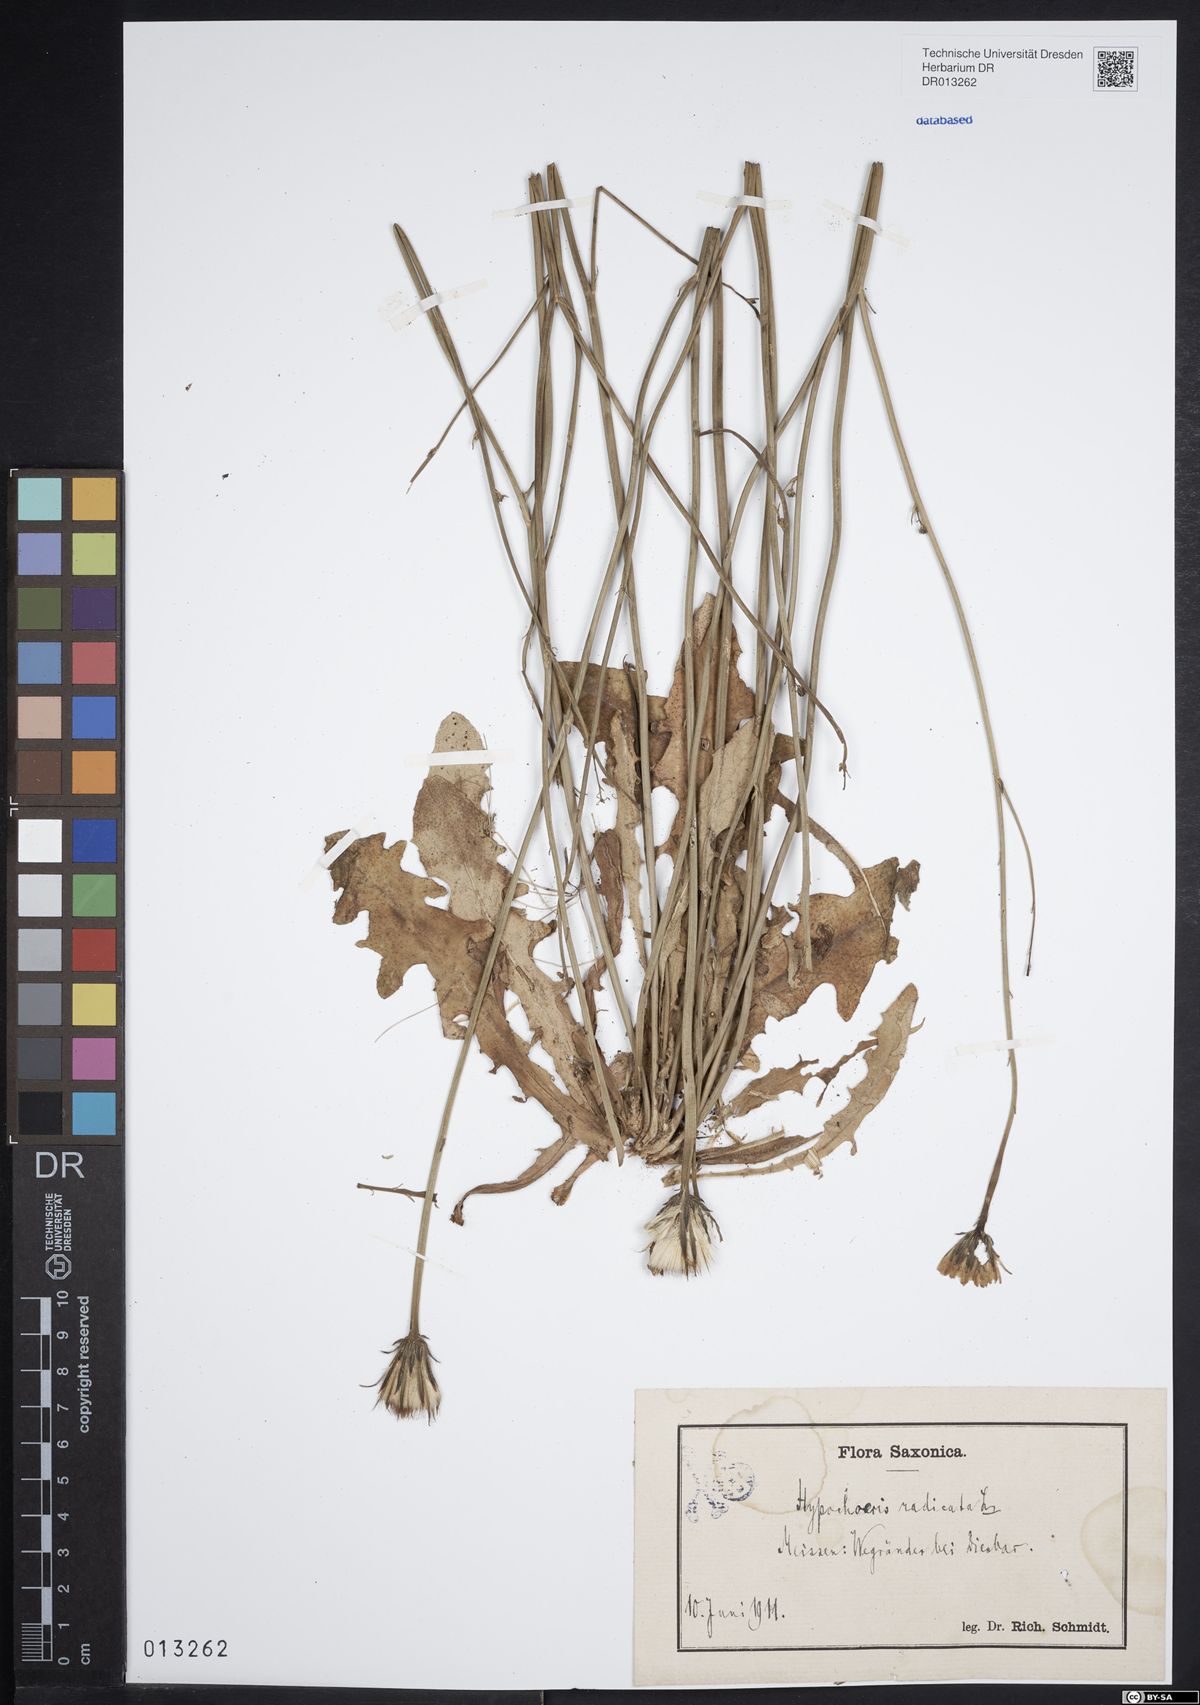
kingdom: Plantae
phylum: Tracheophyta
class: Magnoliopsida
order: Asterales
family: Asteraceae
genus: Hypochaeris
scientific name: Hypochaeris radicata
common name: Flatweed
